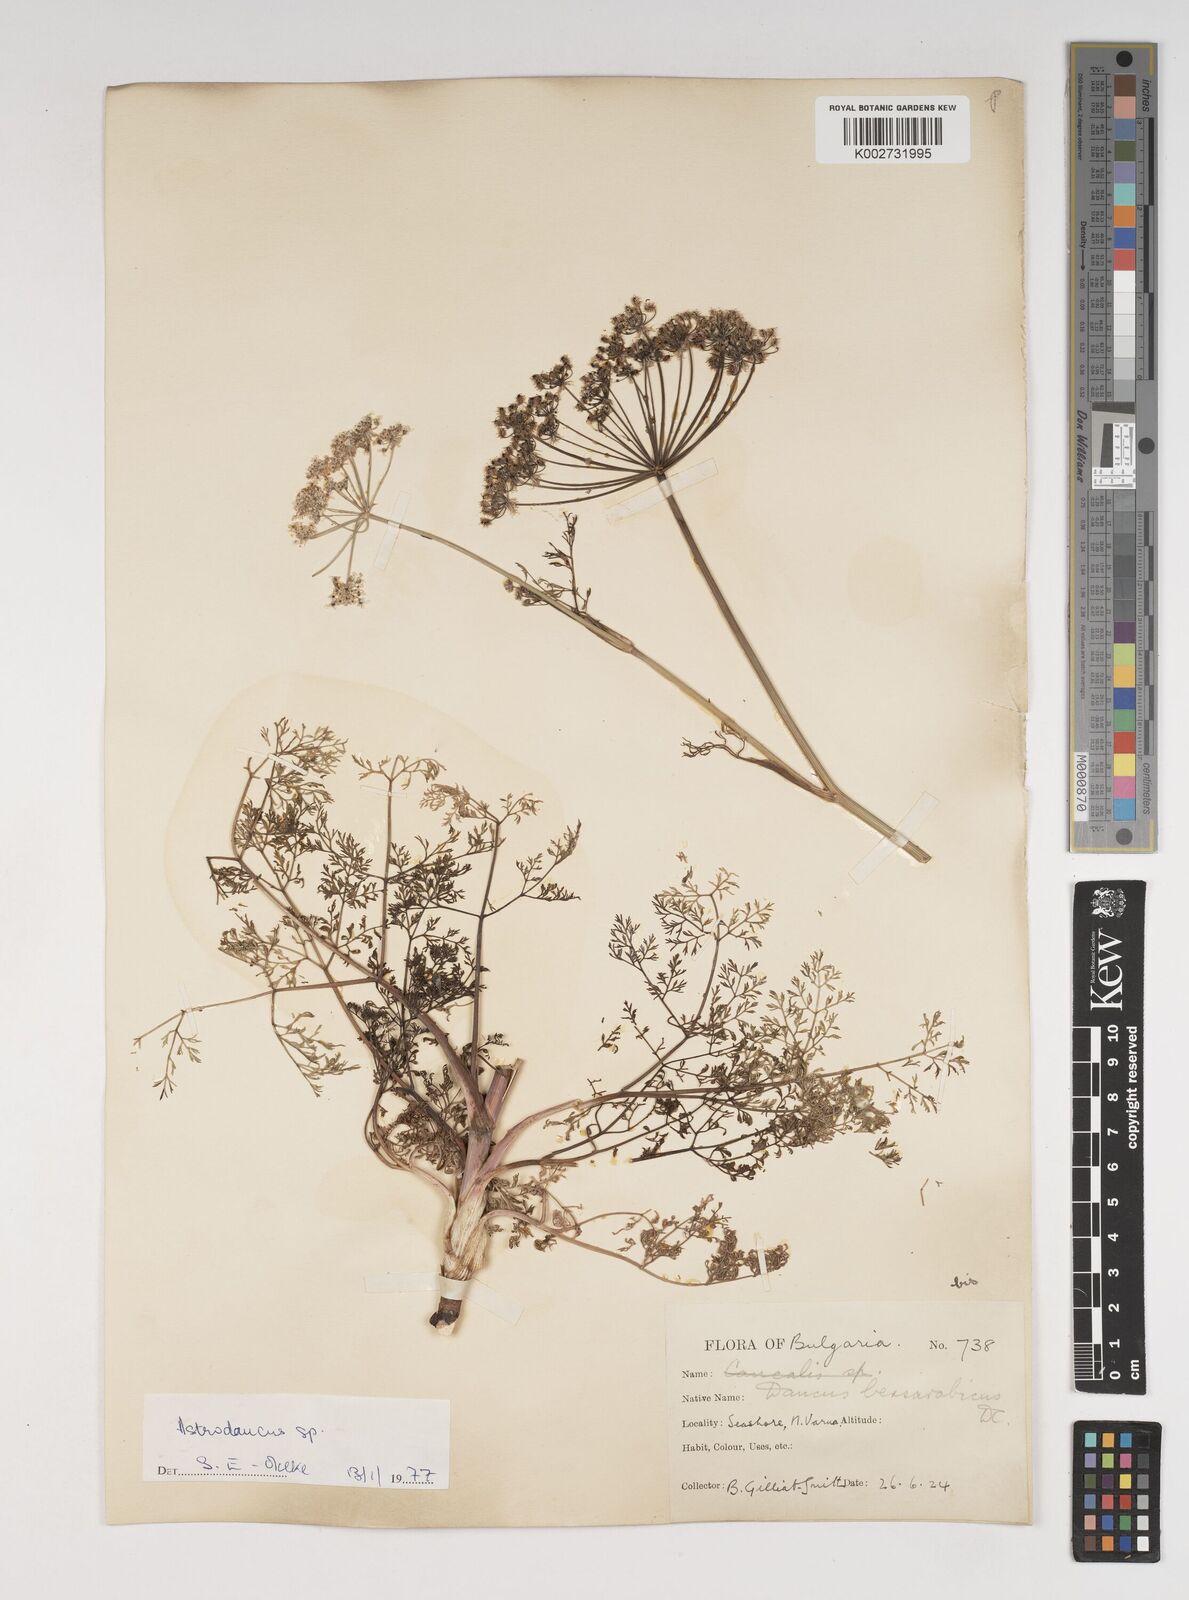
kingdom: Plantae
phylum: Tracheophyta
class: Magnoliopsida
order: Apiales
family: Apiaceae
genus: Astrodaucus
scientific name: Astrodaucus littoralis
